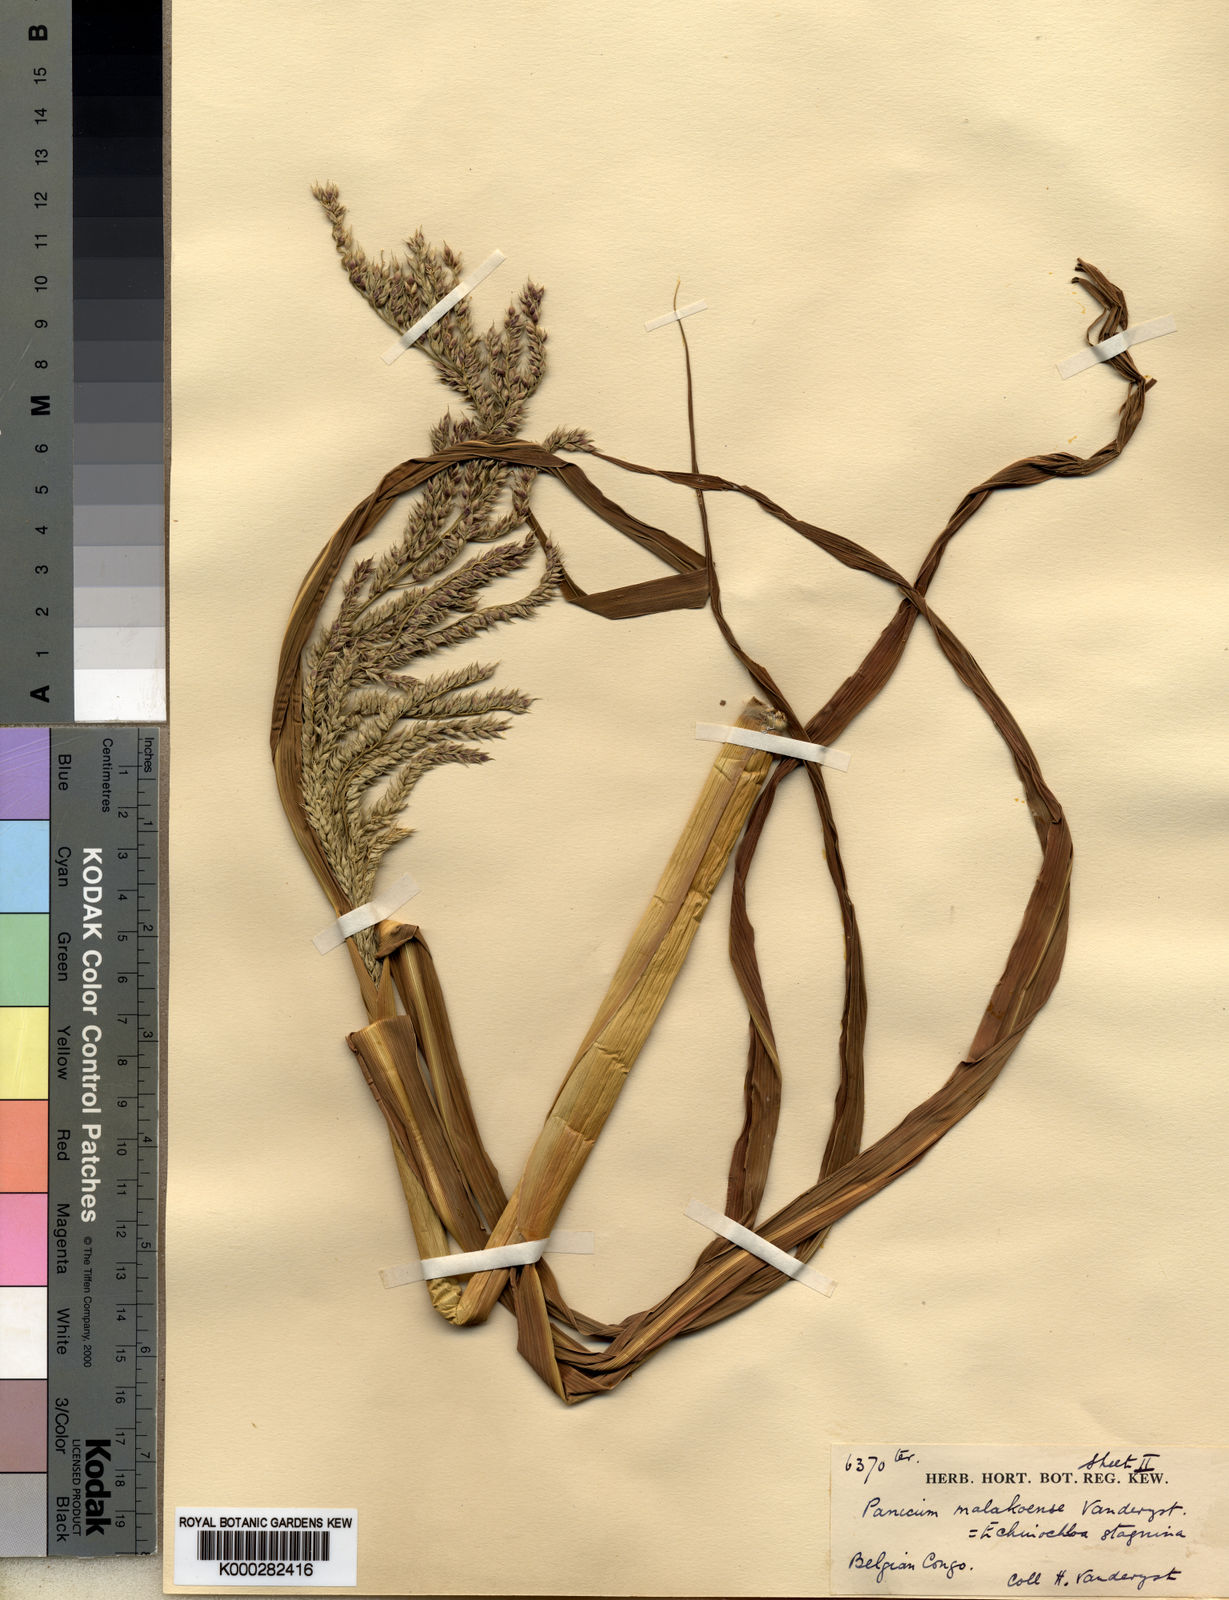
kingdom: Plantae
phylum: Tracheophyta
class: Liliopsida
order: Poales
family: Poaceae
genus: Panicum
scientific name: Panicum fauriei
